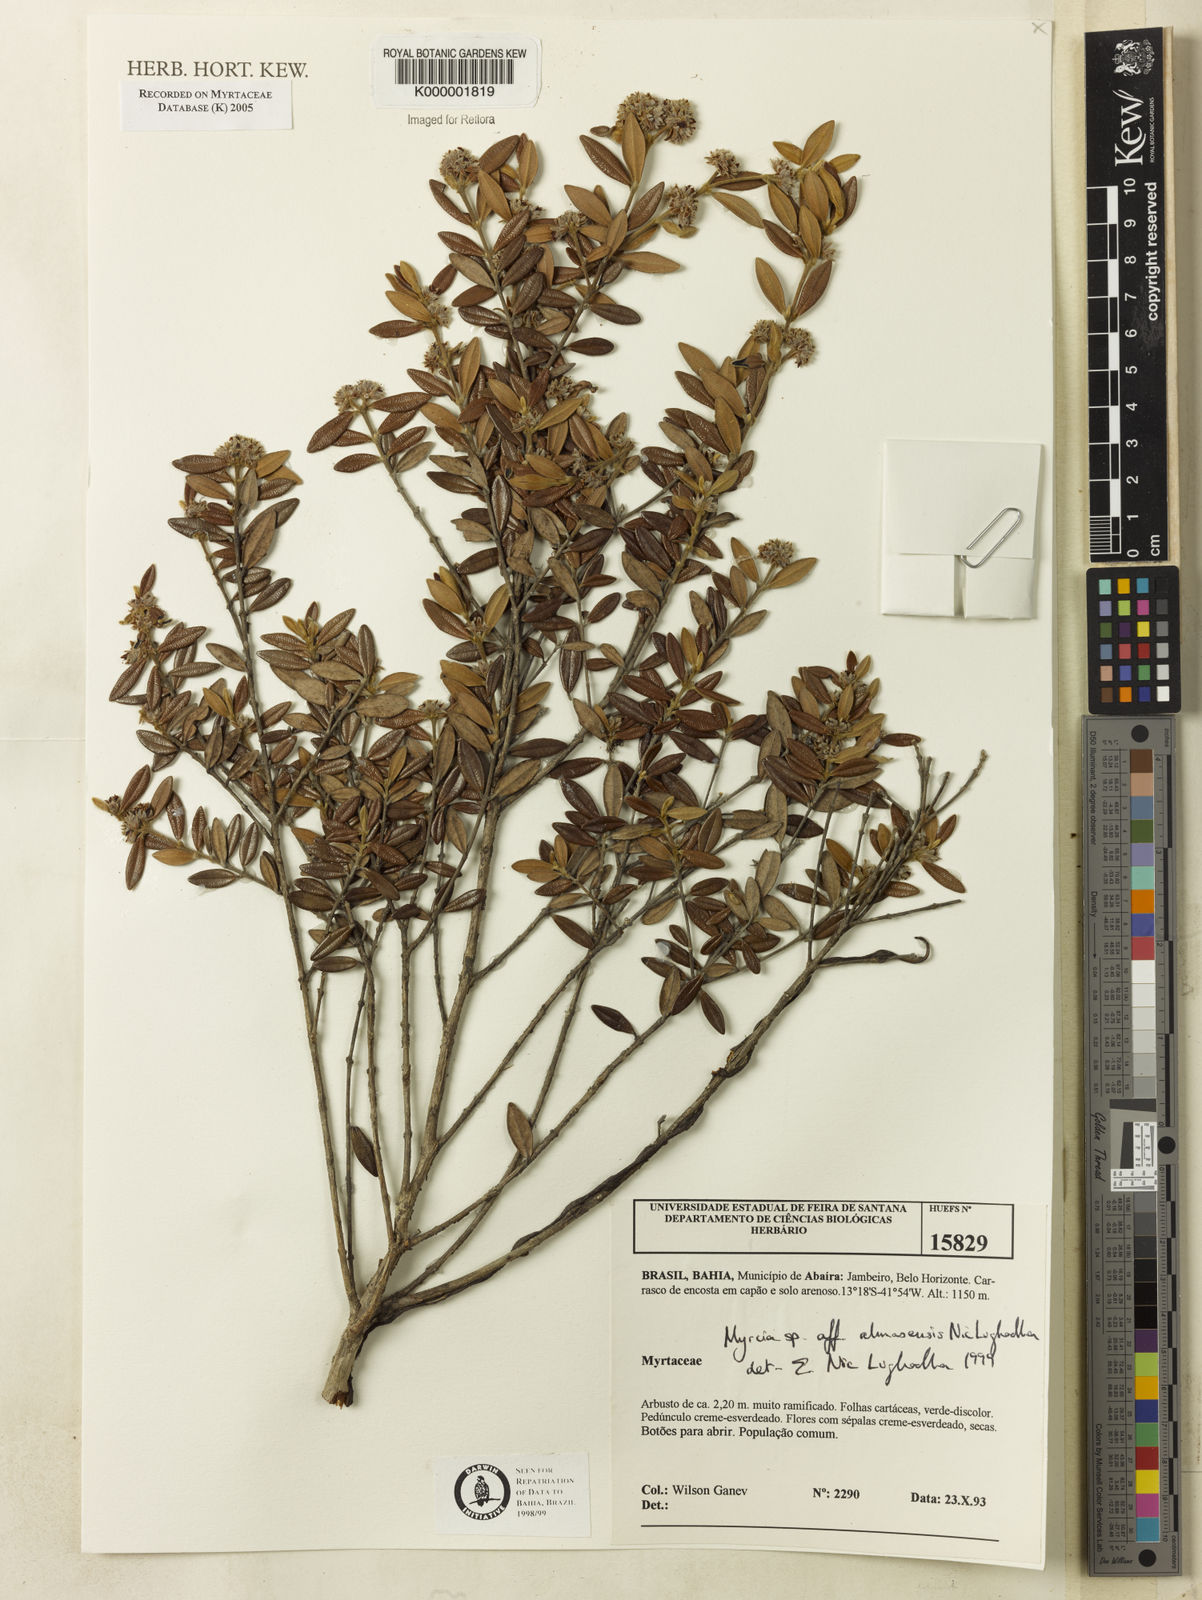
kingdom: Plantae
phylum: Tracheophyta
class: Magnoliopsida
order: Myrtales
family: Myrtaceae
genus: Myrcia
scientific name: Myrcia almasensis
